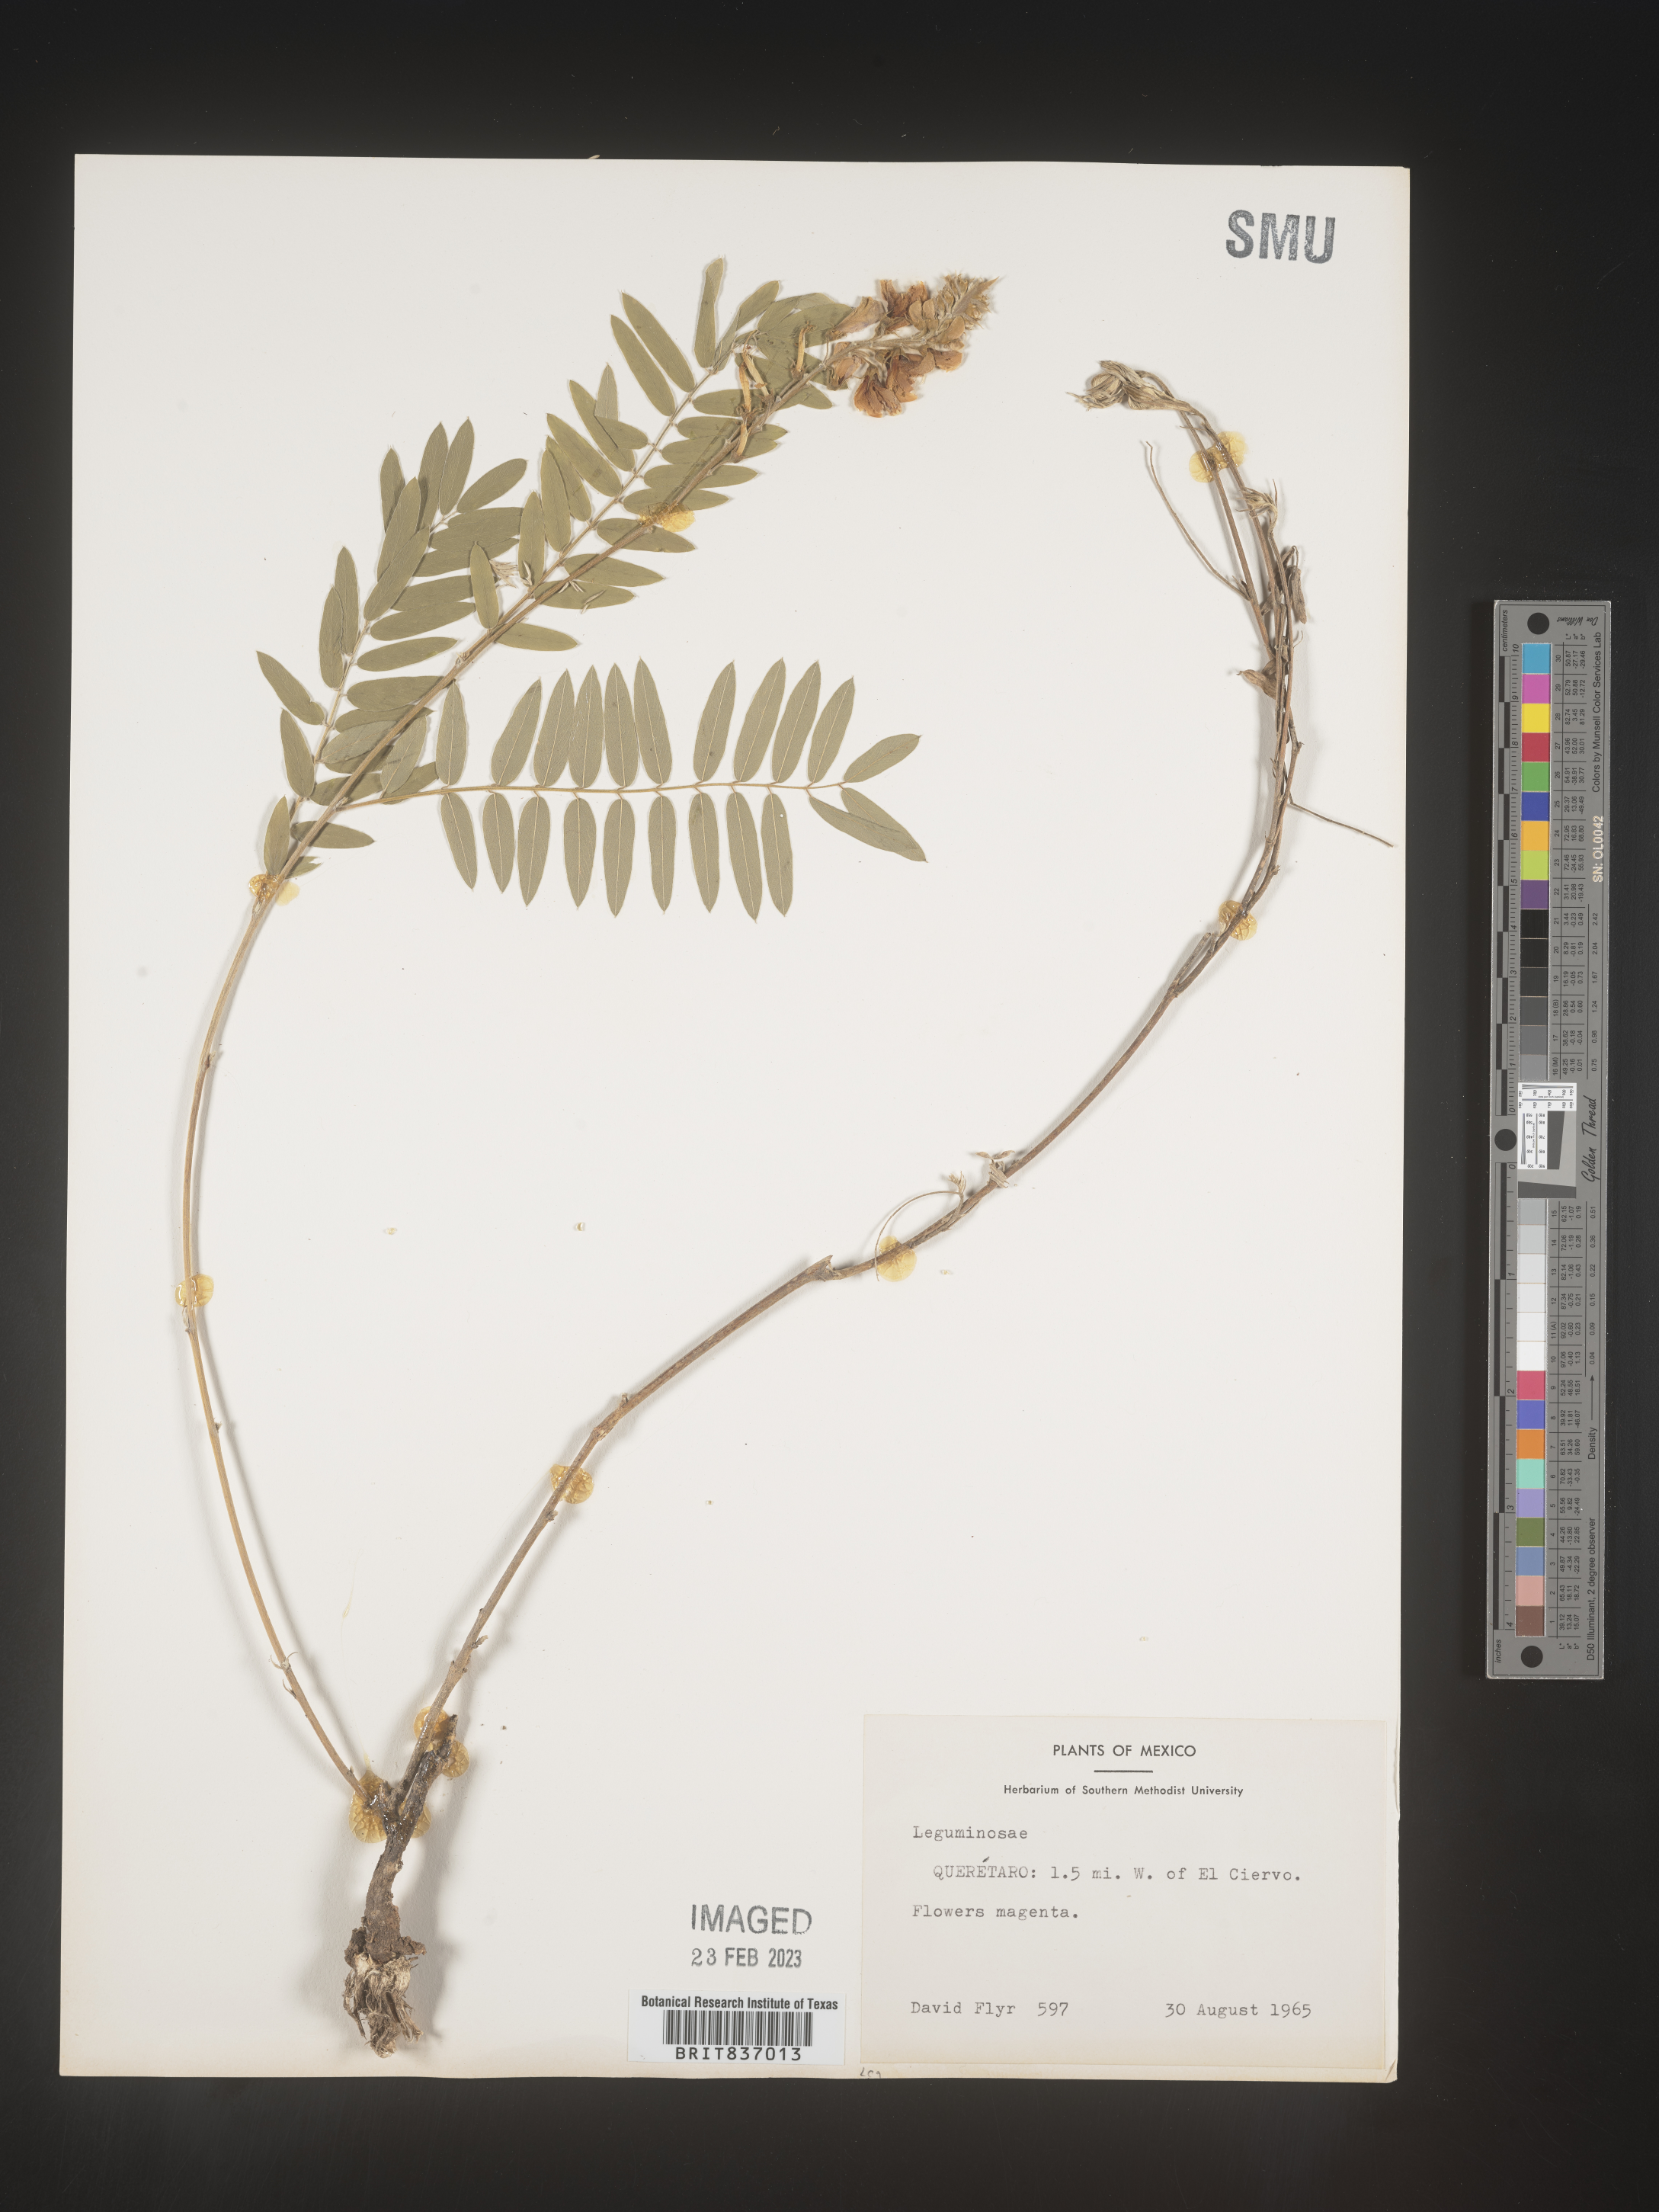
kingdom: Plantae
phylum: Tracheophyta
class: Magnoliopsida
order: Fabales
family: Fabaceae
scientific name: Fabaceae
